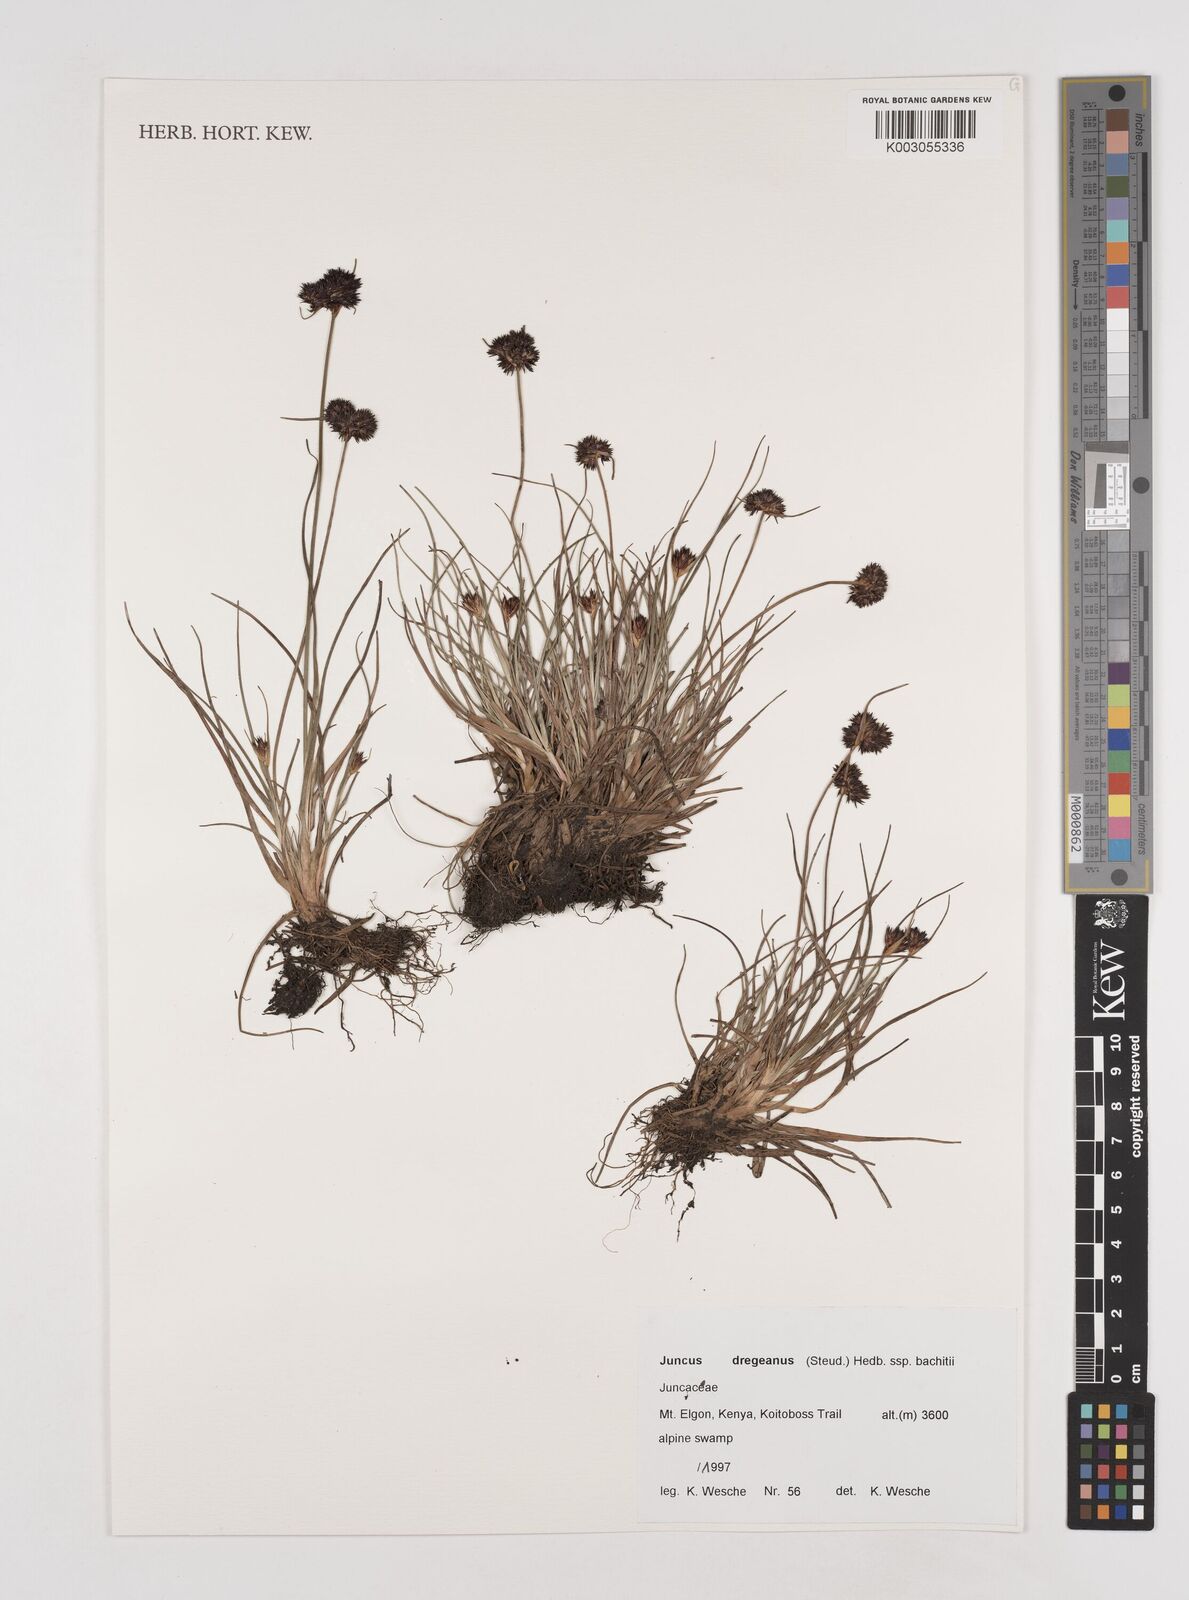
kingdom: Plantae
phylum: Tracheophyta
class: Liliopsida
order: Poales
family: Juncaceae
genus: Juncus
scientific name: Juncus dregeanus
